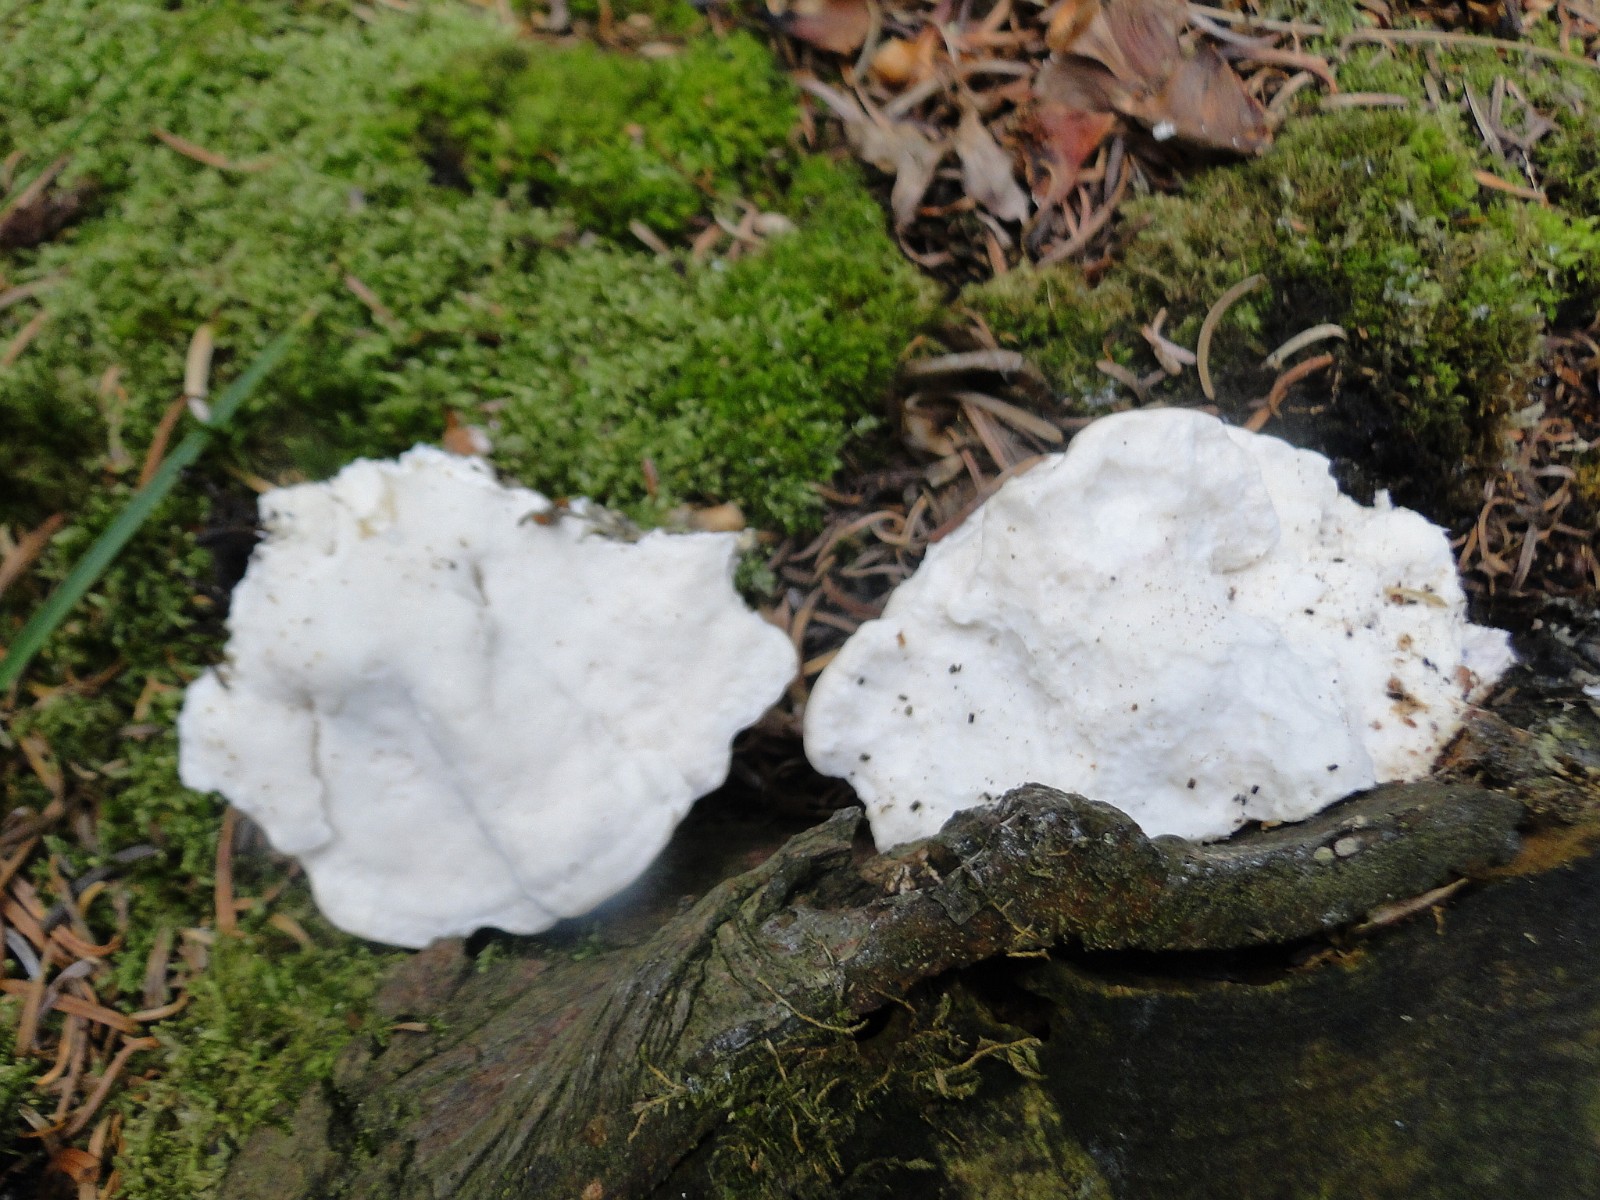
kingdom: Fungi
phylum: Basidiomycota
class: Agaricomycetes
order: Polyporales
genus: Amaropostia
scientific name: Amaropostia stiptica
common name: bitter kødporesvamp
